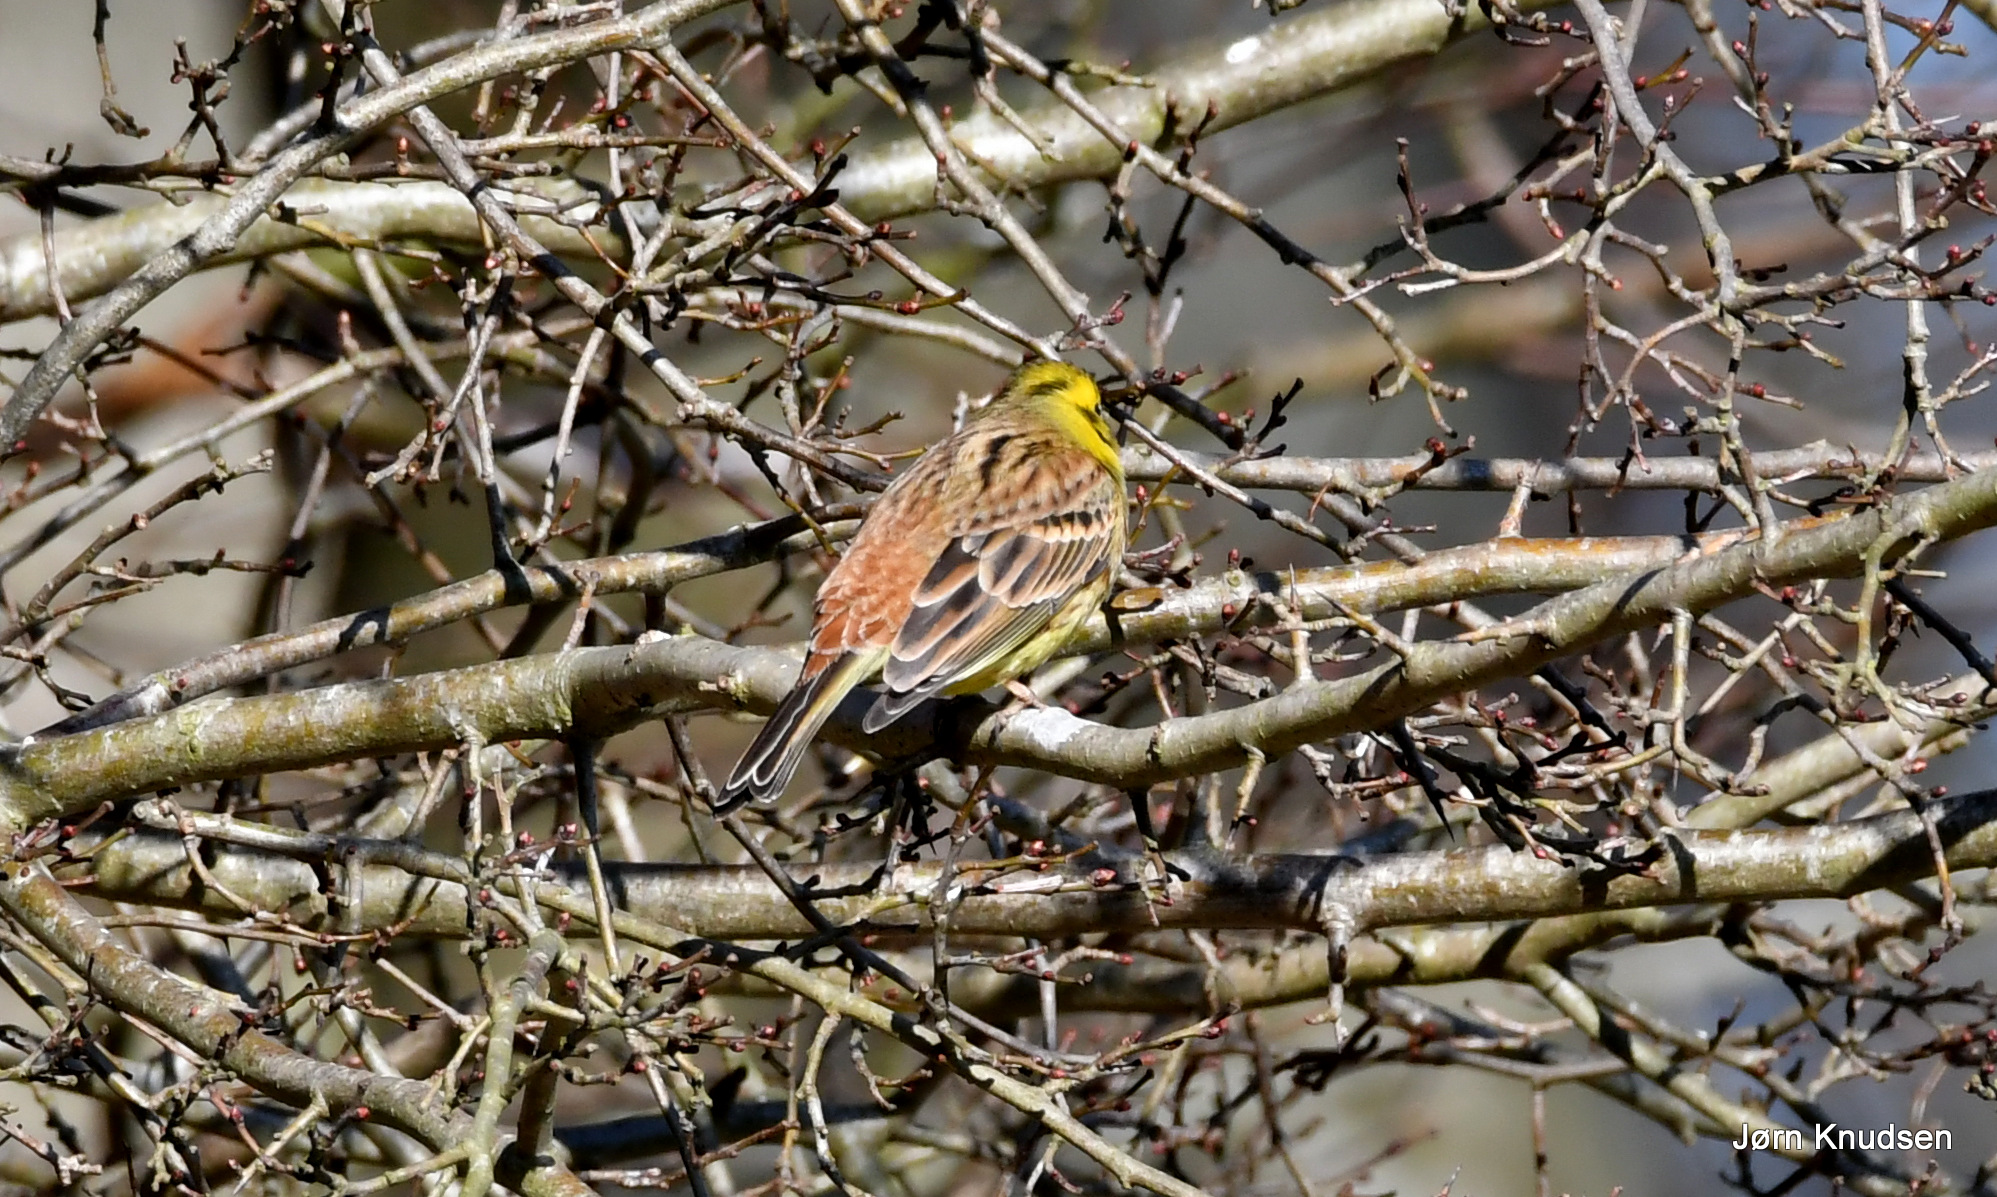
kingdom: Animalia
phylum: Chordata
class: Aves
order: Passeriformes
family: Emberizidae
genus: Emberiza
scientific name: Emberiza citrinella
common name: Gulspurv
